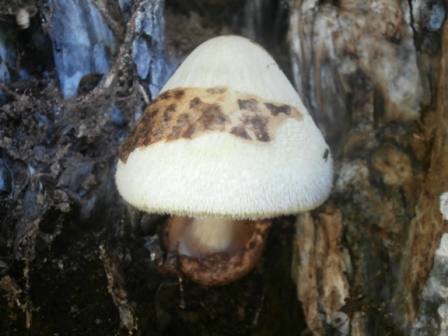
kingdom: Fungi
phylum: Basidiomycota
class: Agaricomycetes
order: Agaricales
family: Pluteaceae
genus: Volvariella
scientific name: Volvariella bombycina
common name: silkehåret posesvamp
